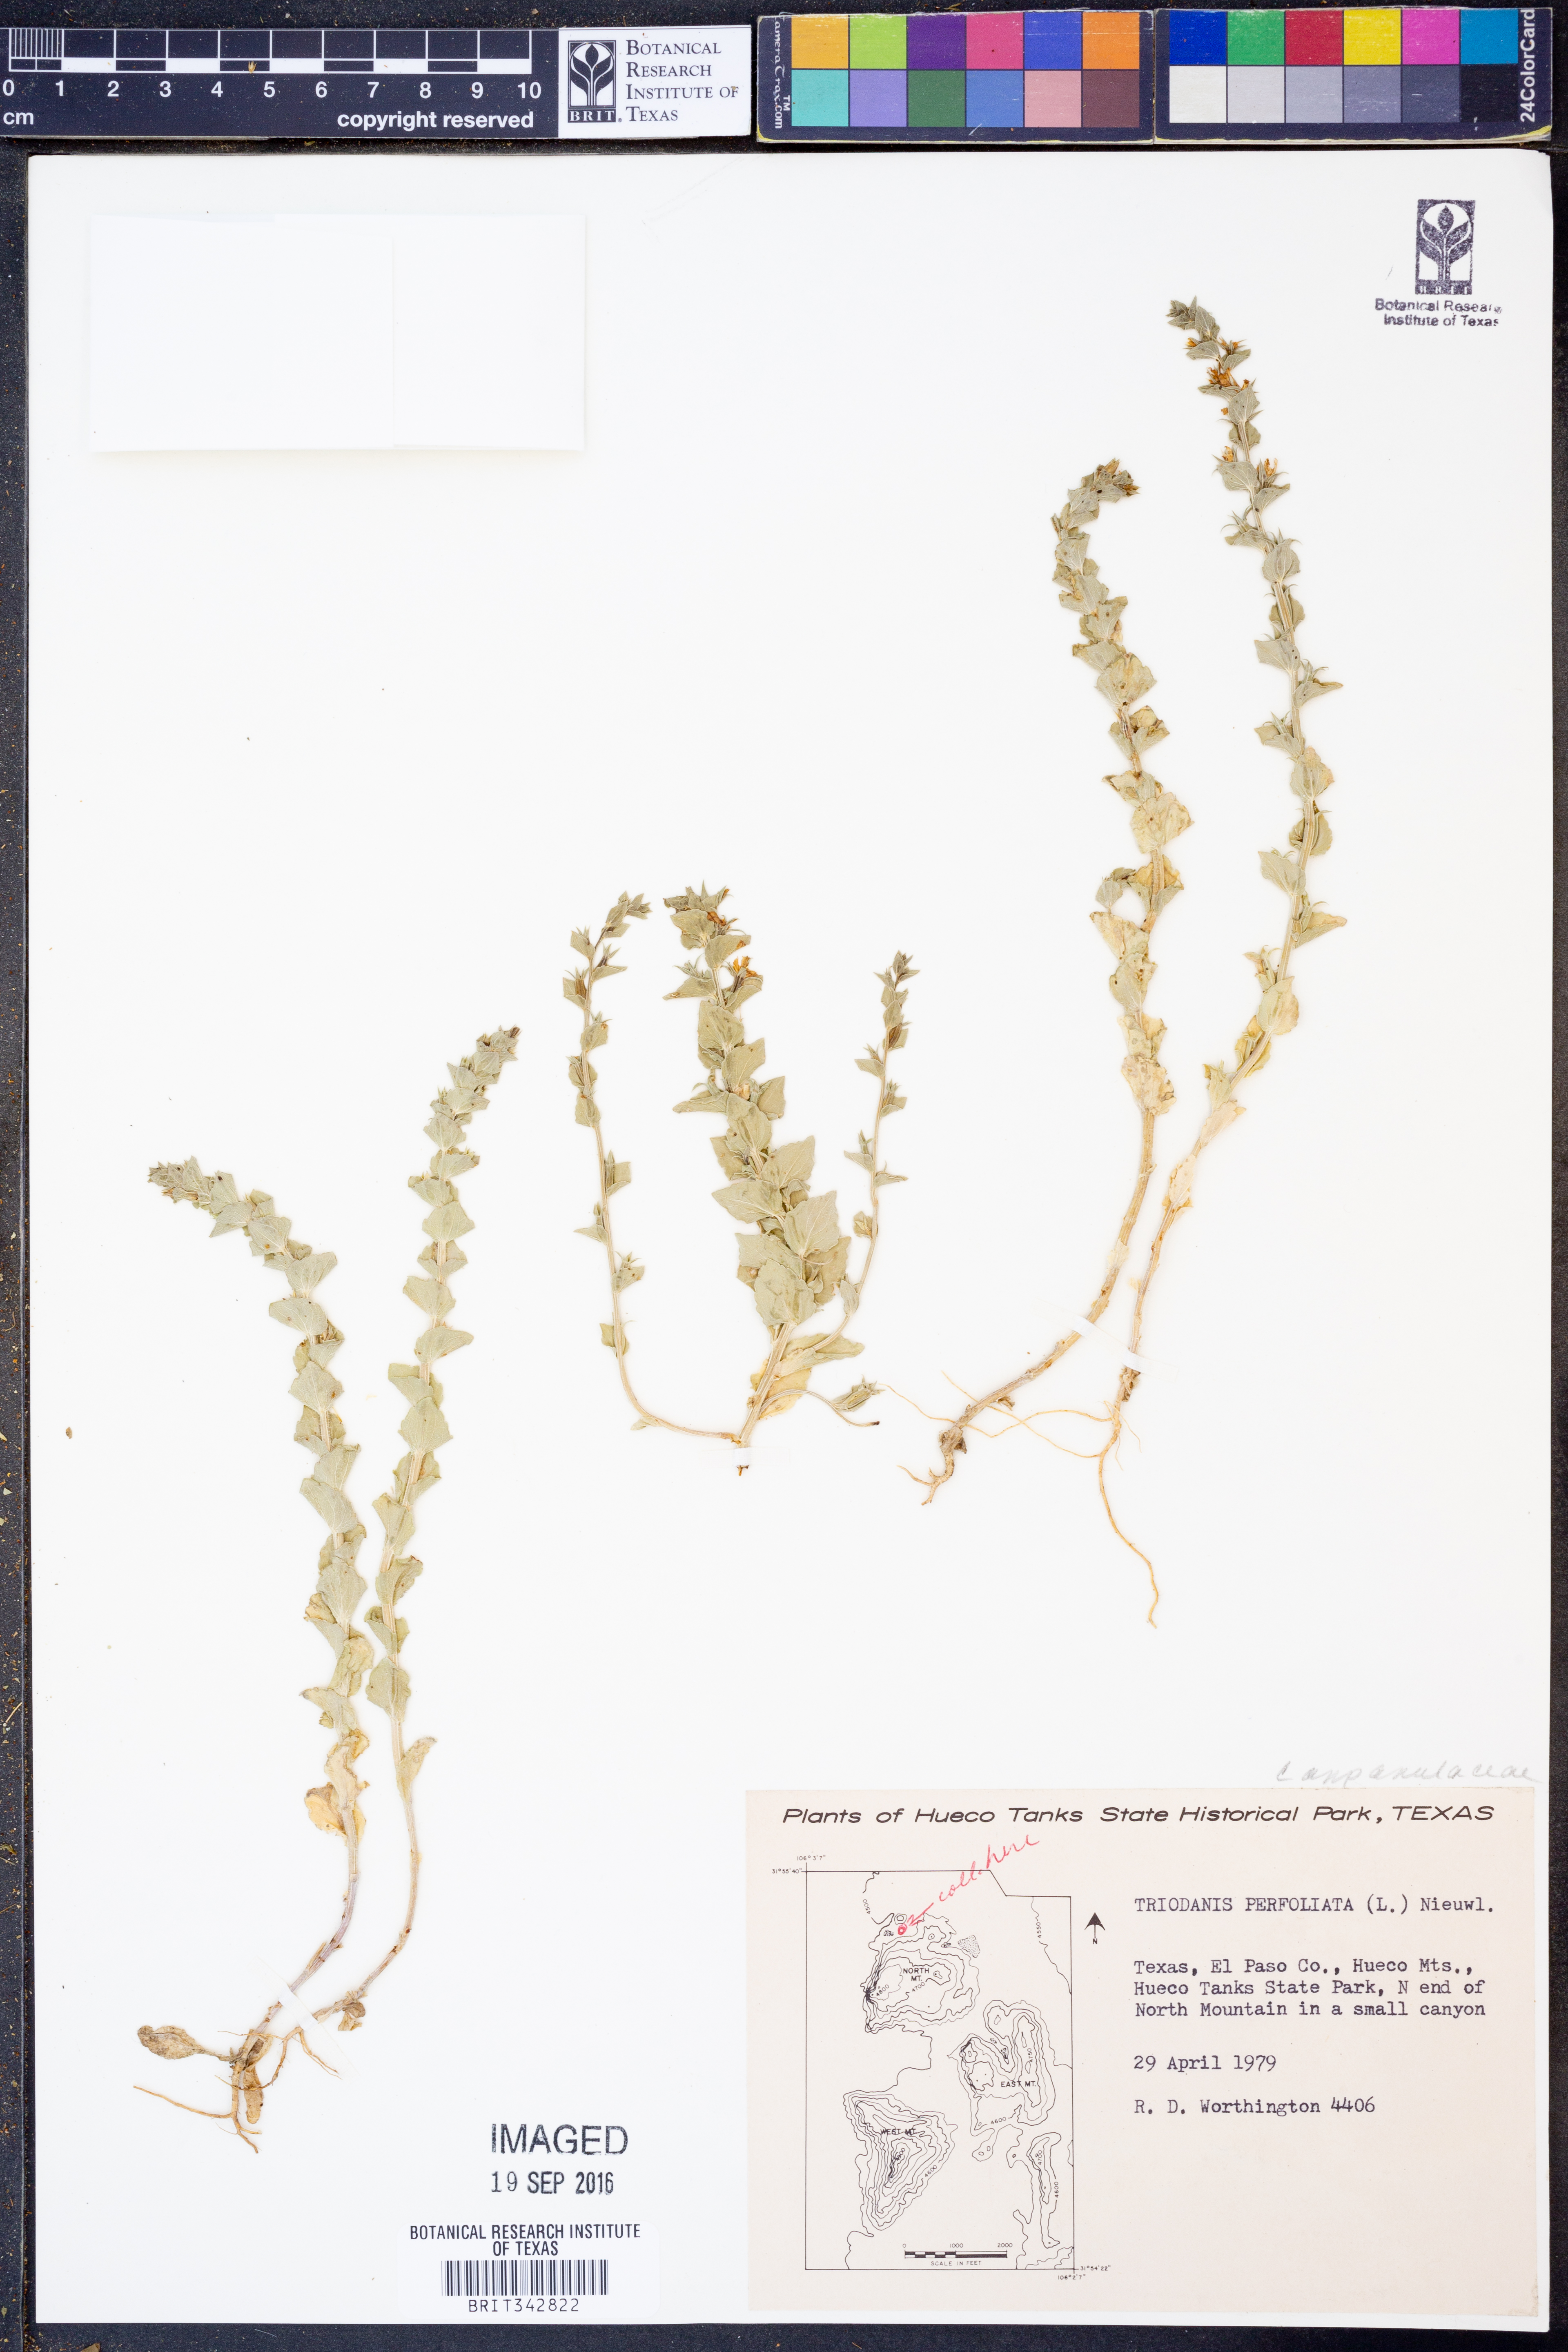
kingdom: Plantae
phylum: Tracheophyta
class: Magnoliopsida
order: Asterales
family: Campanulaceae
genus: Triodanis
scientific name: Triodanis perfoliata
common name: Clasping venus' looking-glass
